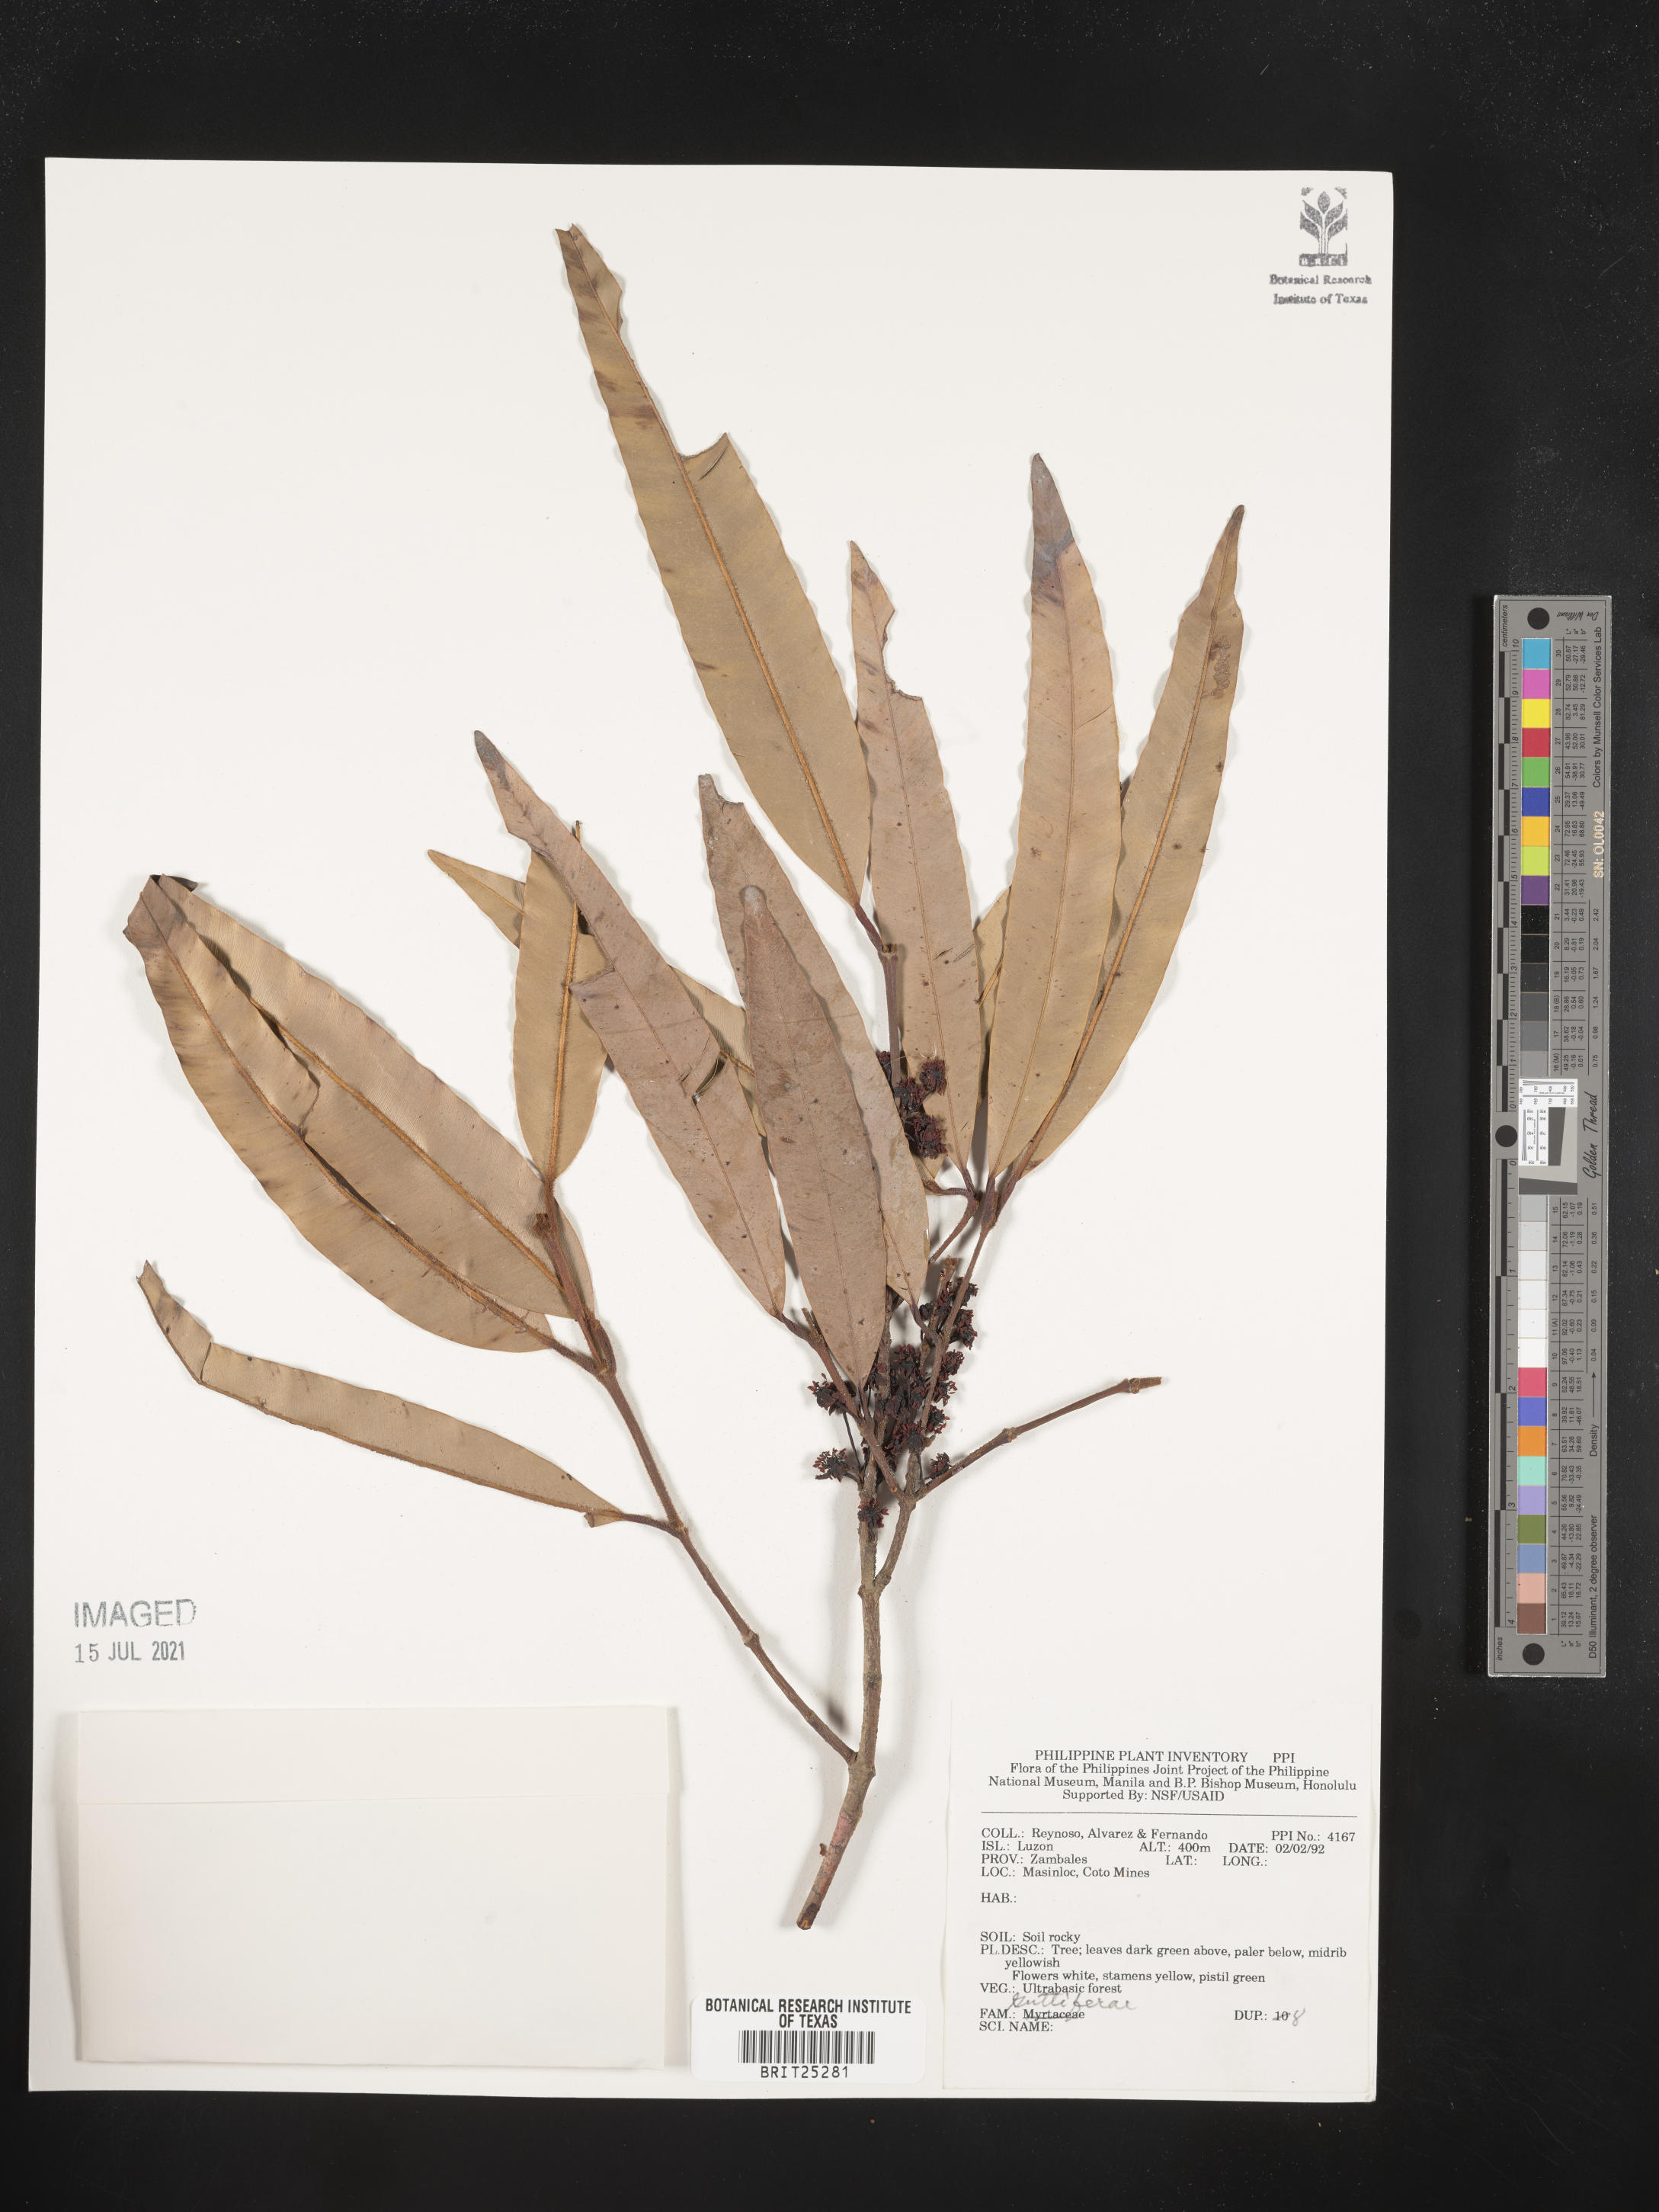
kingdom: Plantae
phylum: Tracheophyta
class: Magnoliopsida
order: Malpighiales
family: Hypericaceae
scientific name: Hypericaceae
